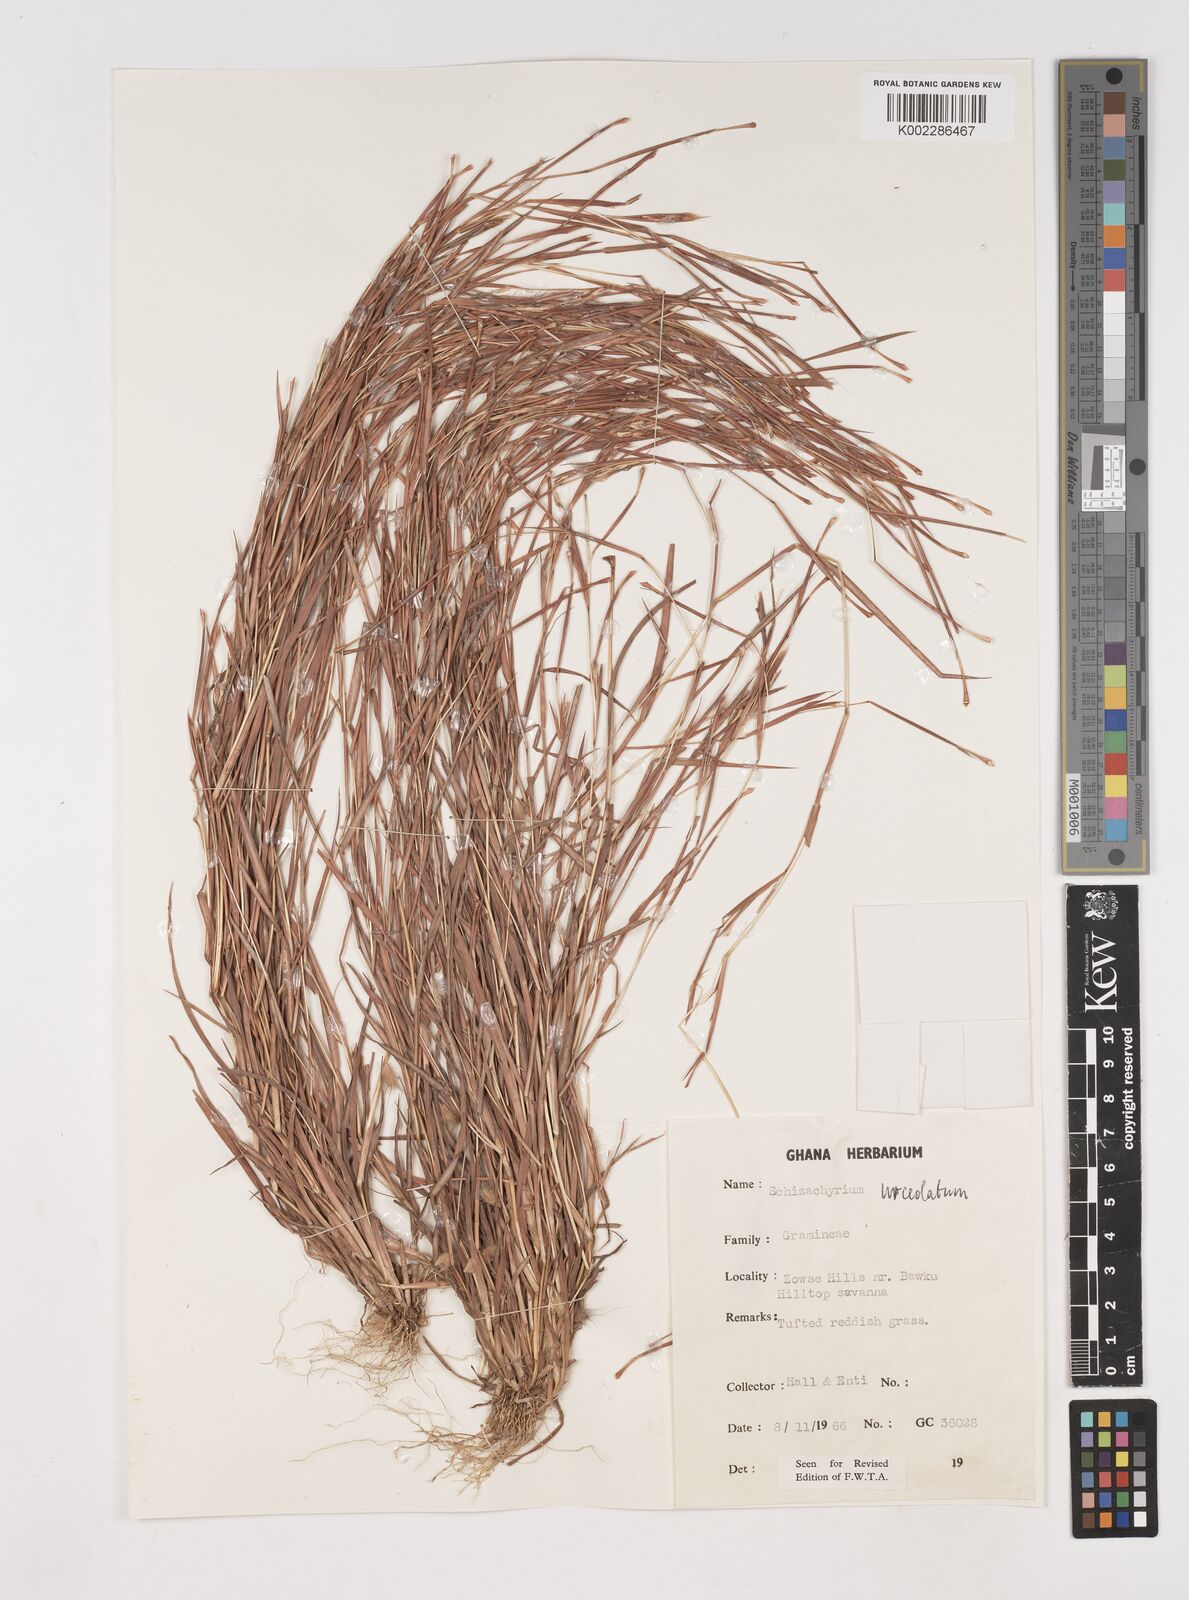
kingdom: Plantae
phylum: Tracheophyta
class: Liliopsida
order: Poales
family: Poaceae
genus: Schizachyrium
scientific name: Schizachyrium urceolatum
